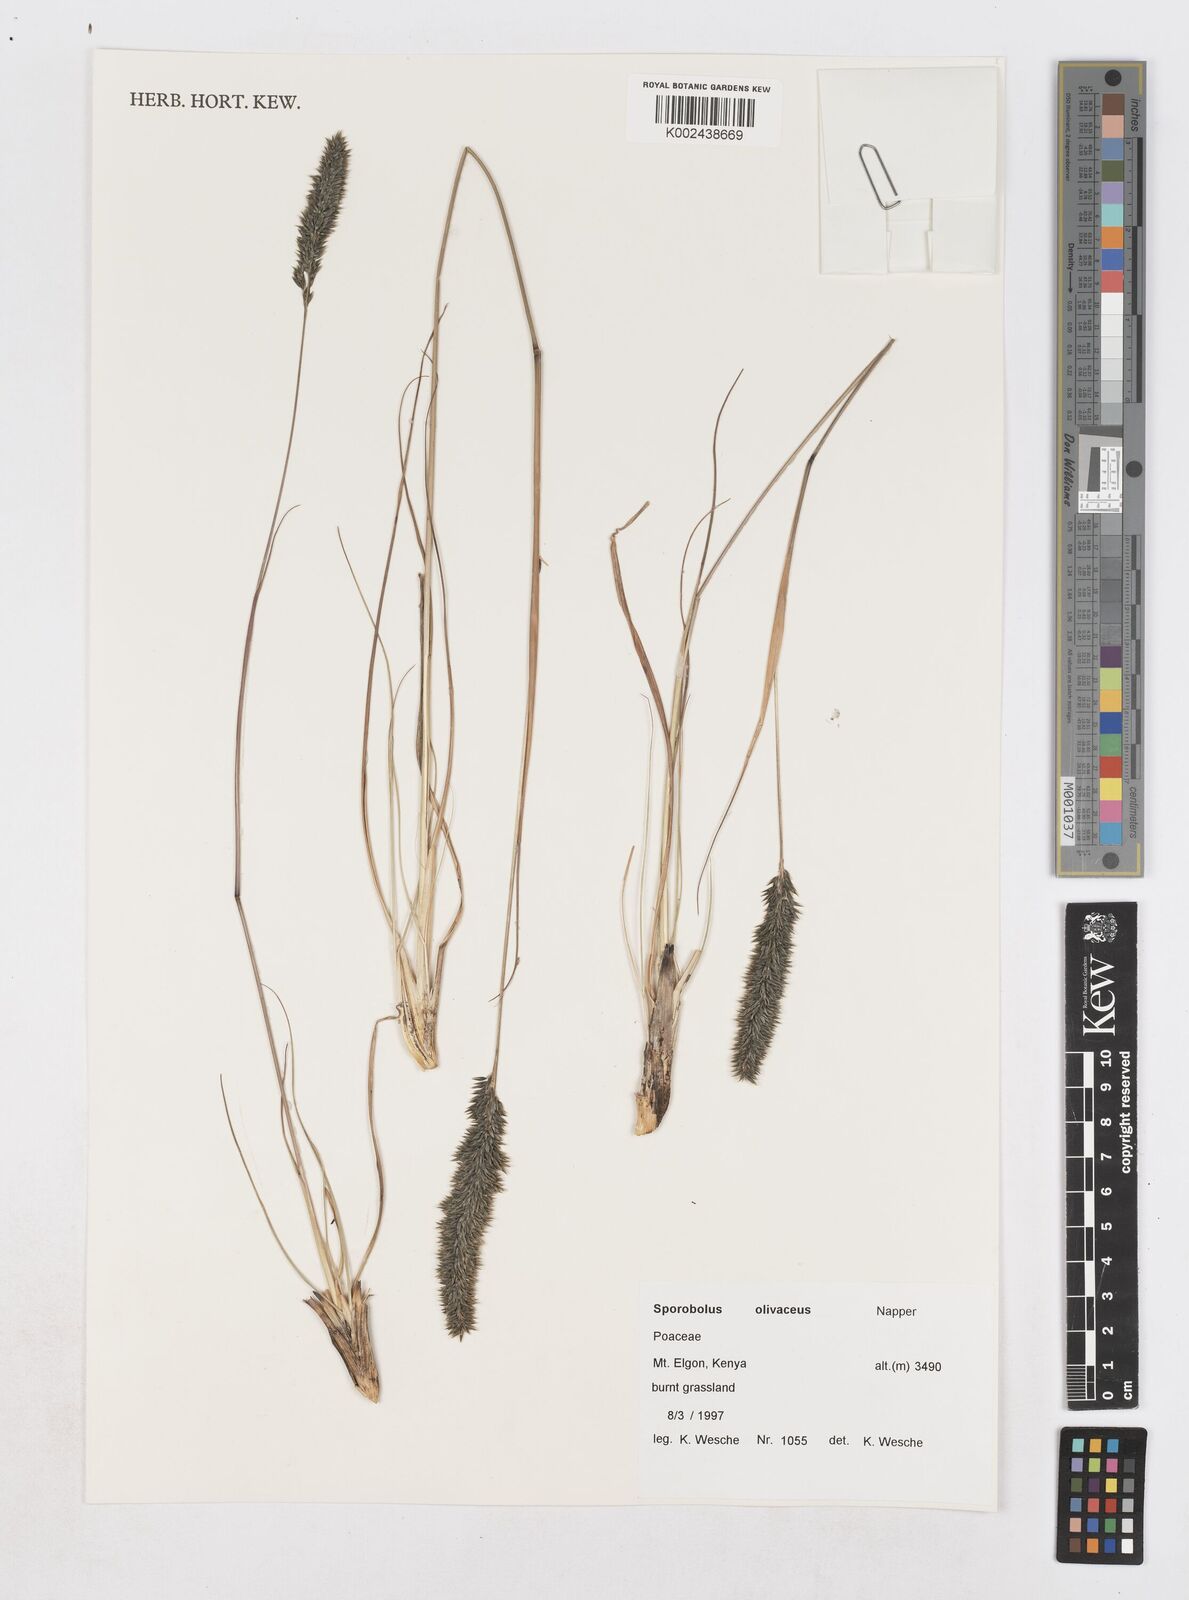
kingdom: Plantae
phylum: Tracheophyta
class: Liliopsida
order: Poales
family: Poaceae
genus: Sporobolus
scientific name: Sporobolus olivaceus
